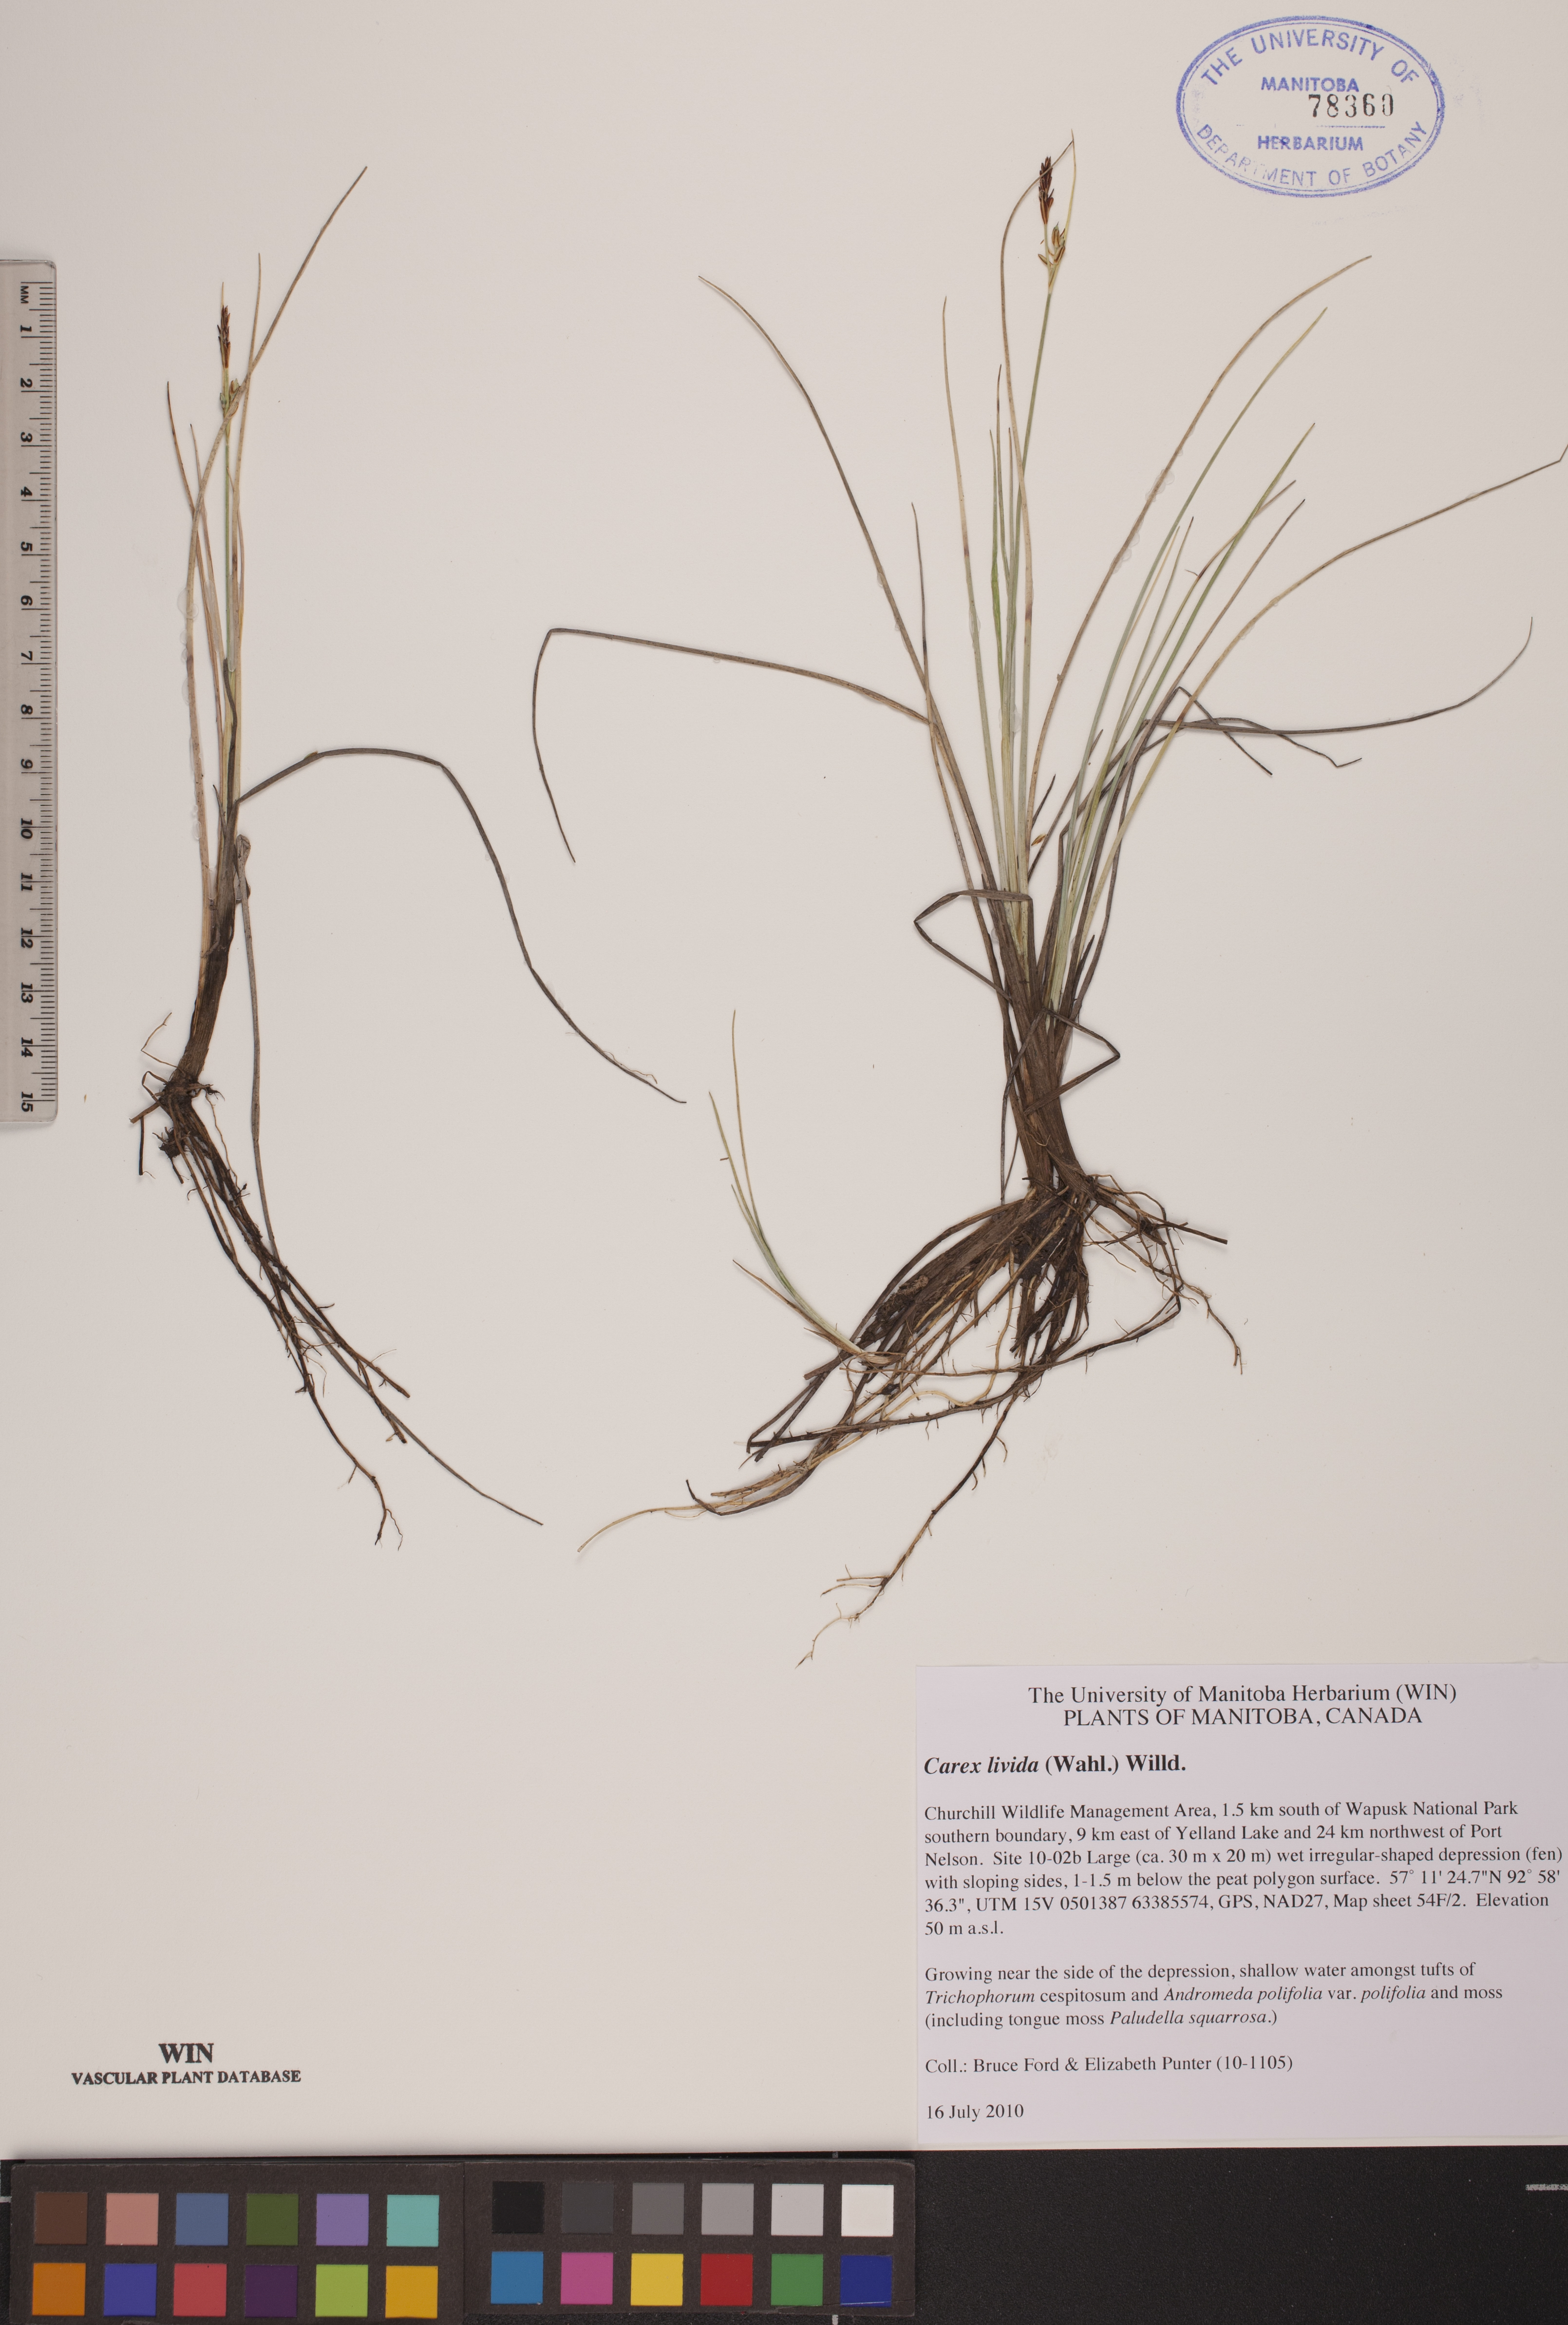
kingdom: Plantae
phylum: Tracheophyta
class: Liliopsida
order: Poales
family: Cyperaceae
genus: Carex
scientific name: Carex livida
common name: Livid sedge
